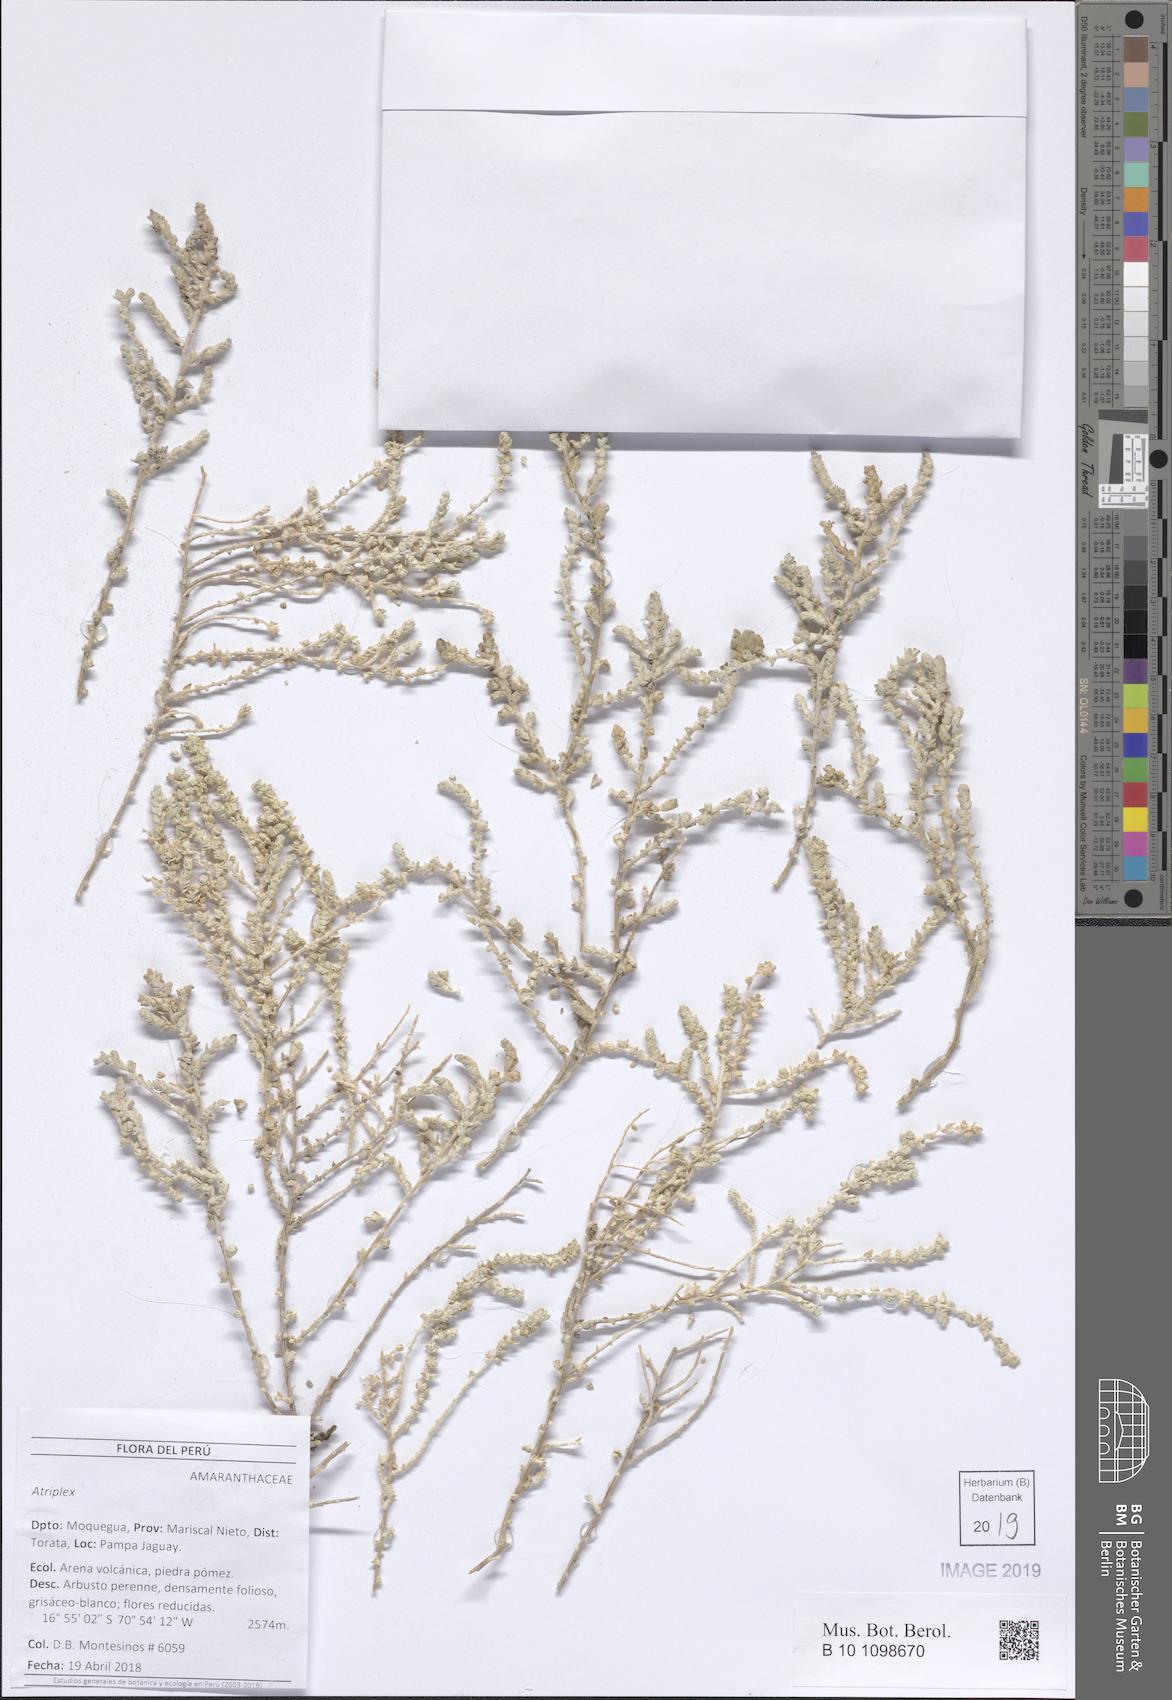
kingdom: Plantae
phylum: Tracheophyta
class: Magnoliopsida
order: Caryophyllales
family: Amaranthaceae
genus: Atriplex
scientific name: Atriplex
